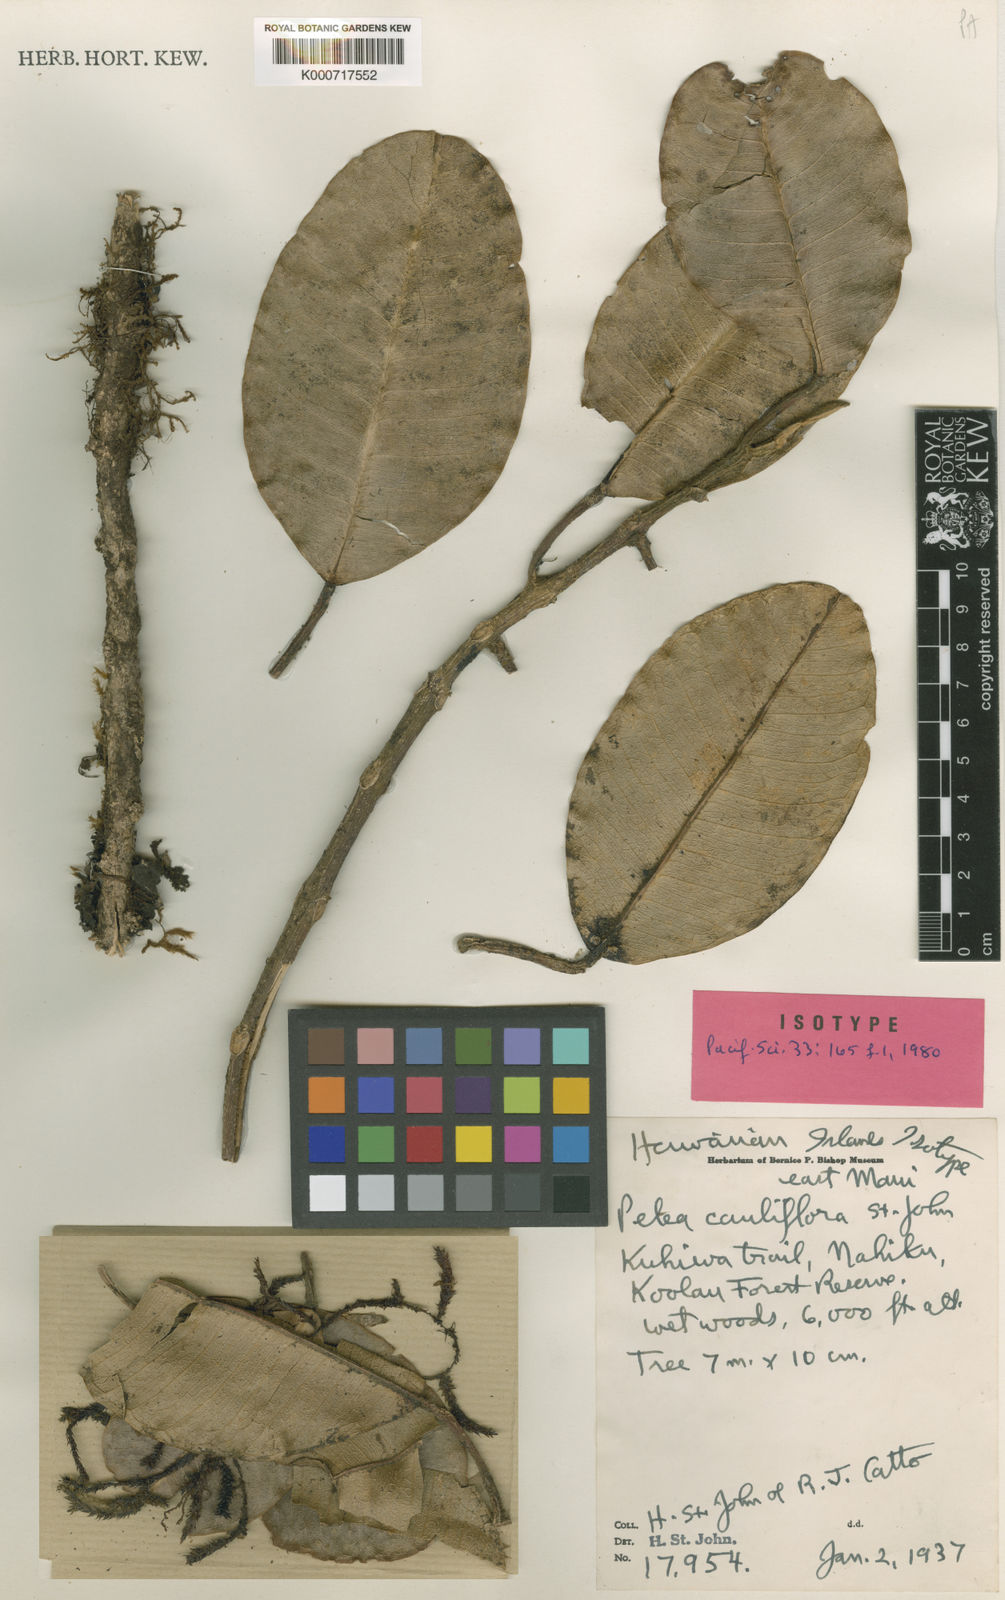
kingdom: Plantae
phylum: Tracheophyta
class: Magnoliopsida
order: Sapindales
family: Rutaceae
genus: Melicope
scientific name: Melicope pseudoanisata
